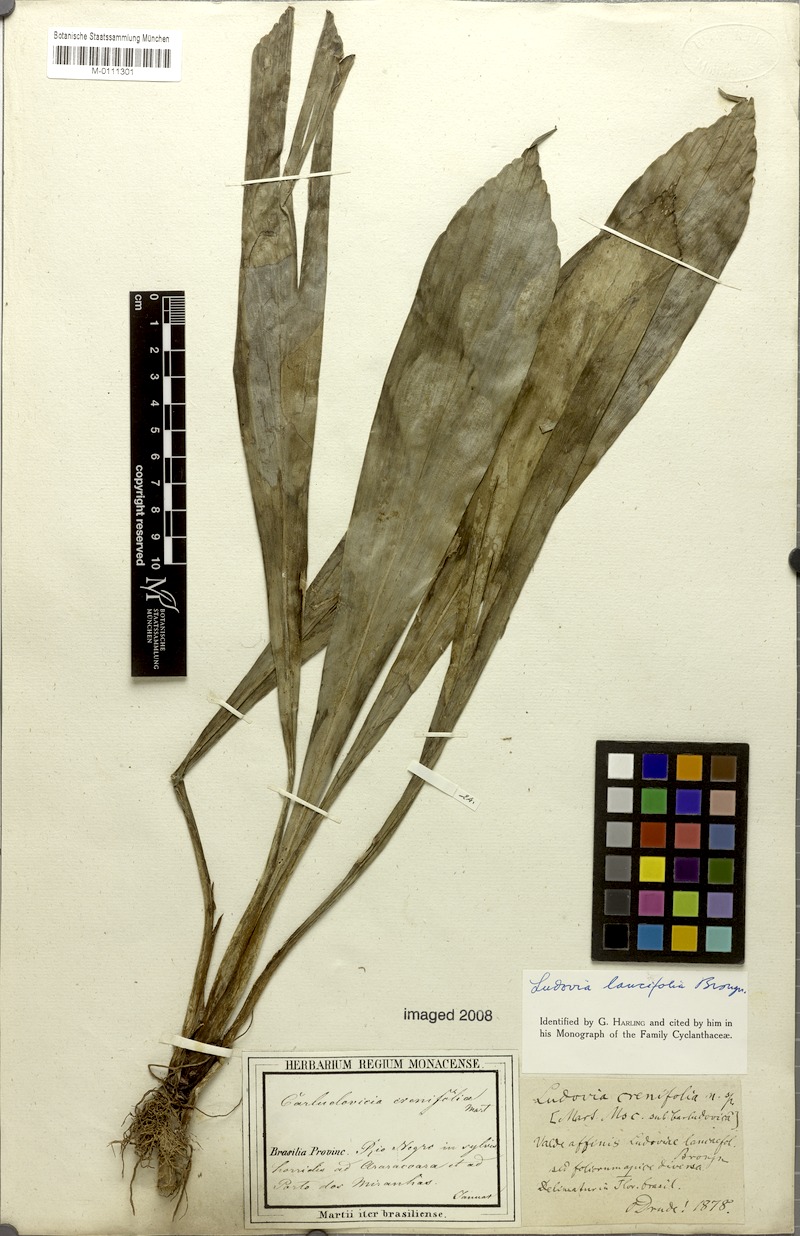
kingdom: Plantae
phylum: Tracheophyta
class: Liliopsida
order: Pandanales
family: Cyclanthaceae
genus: Ludovia
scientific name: Ludovia lancifolia
